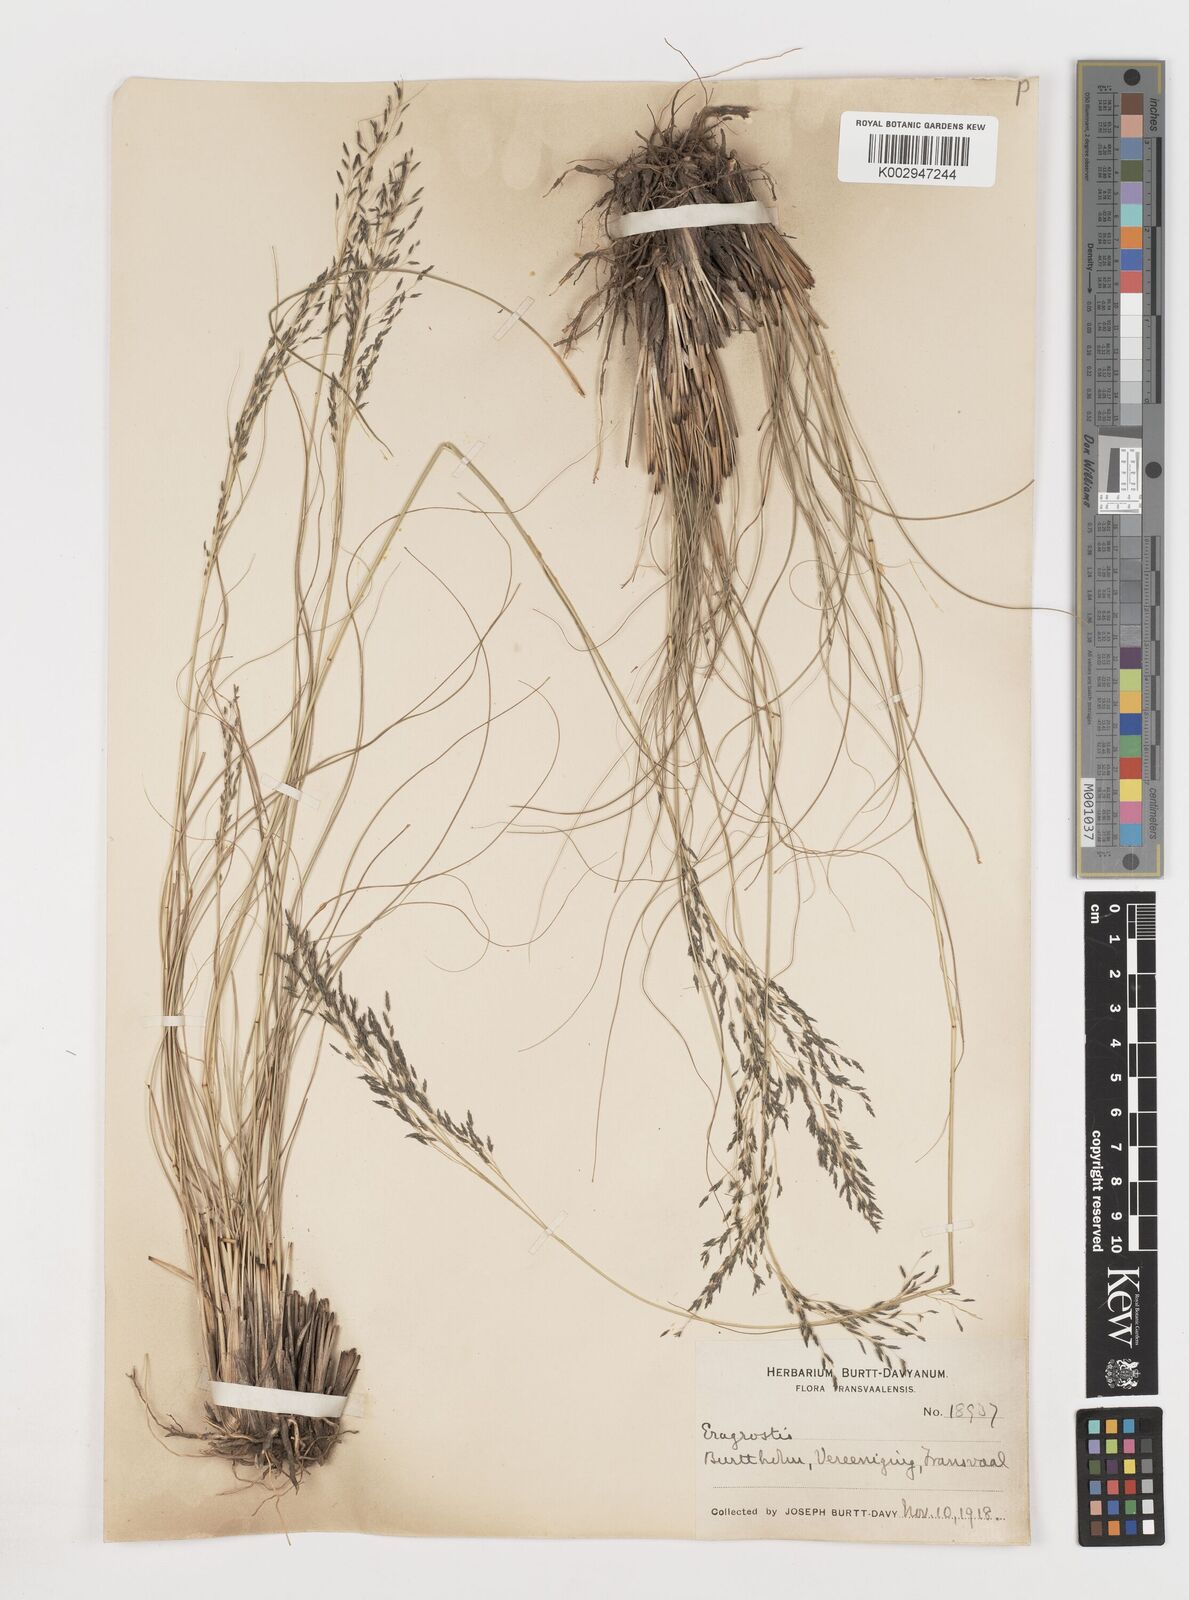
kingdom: Plantae
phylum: Tracheophyta
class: Liliopsida
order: Poales
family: Poaceae
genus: Eragrostis
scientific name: Eragrostis
